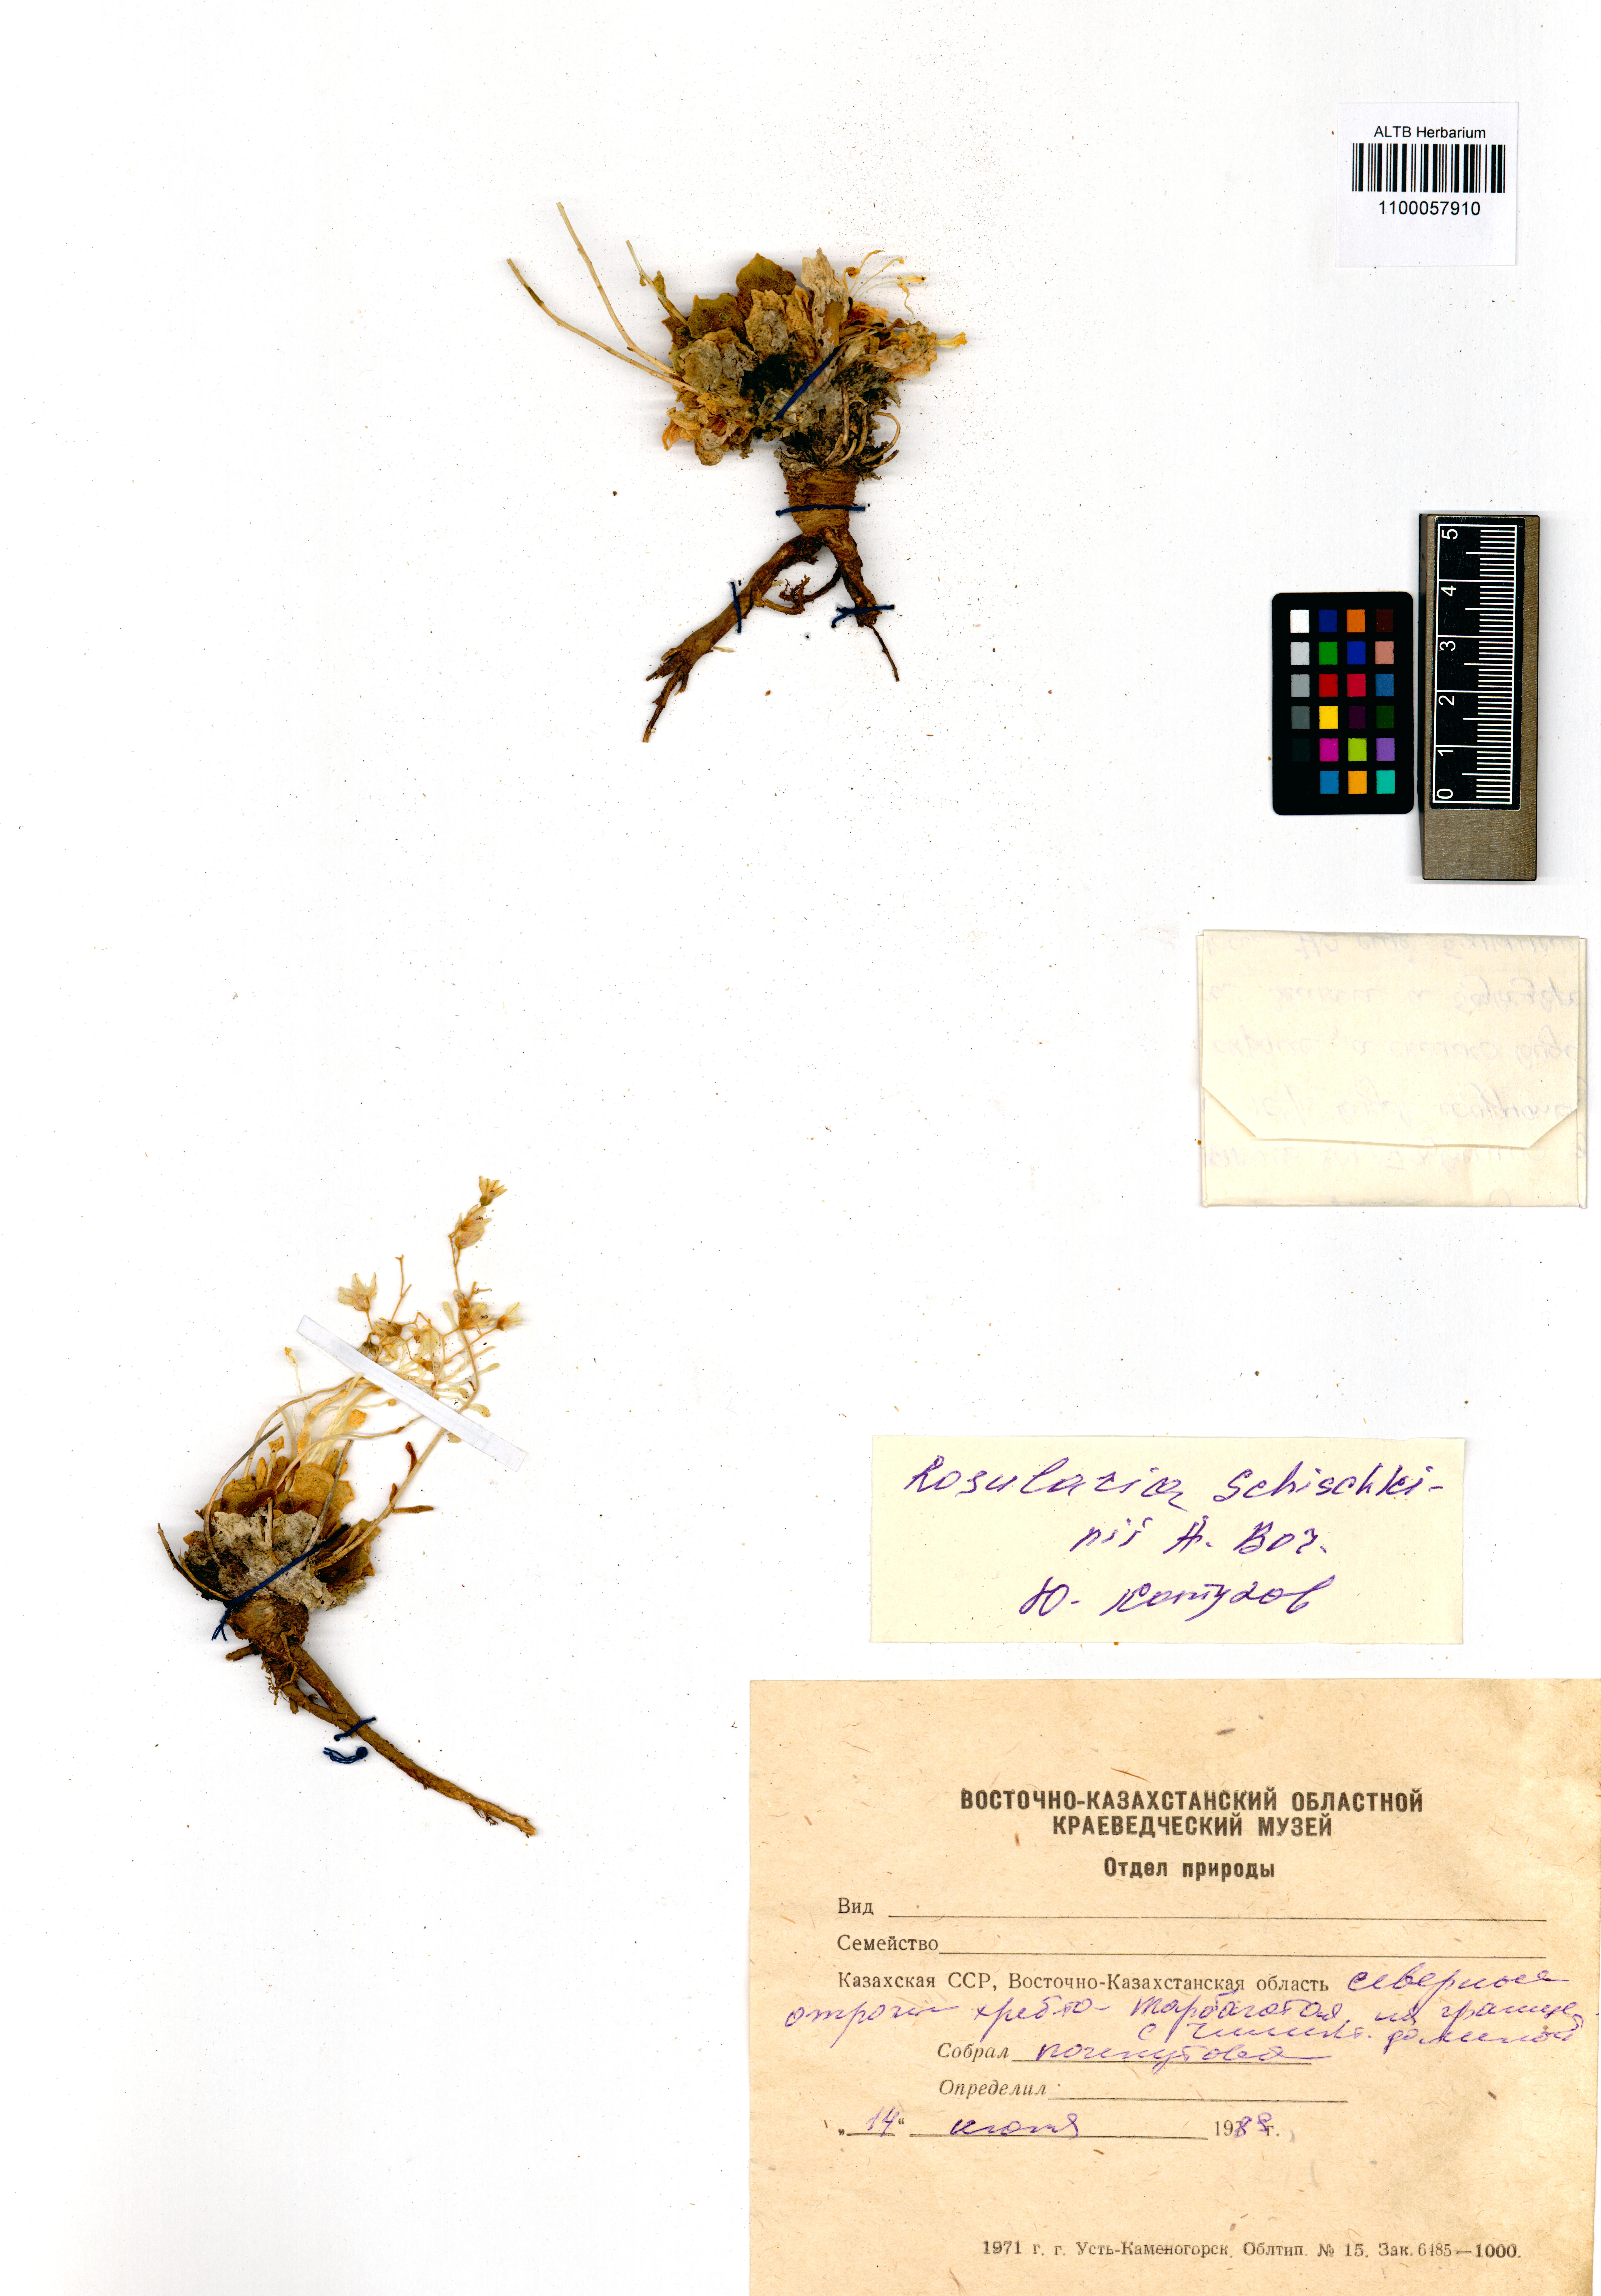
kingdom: Plantae
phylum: Tracheophyta
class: Magnoliopsida
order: Saxifragales
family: Crassulaceae
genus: Rosularia
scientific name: Rosularia alpestris
